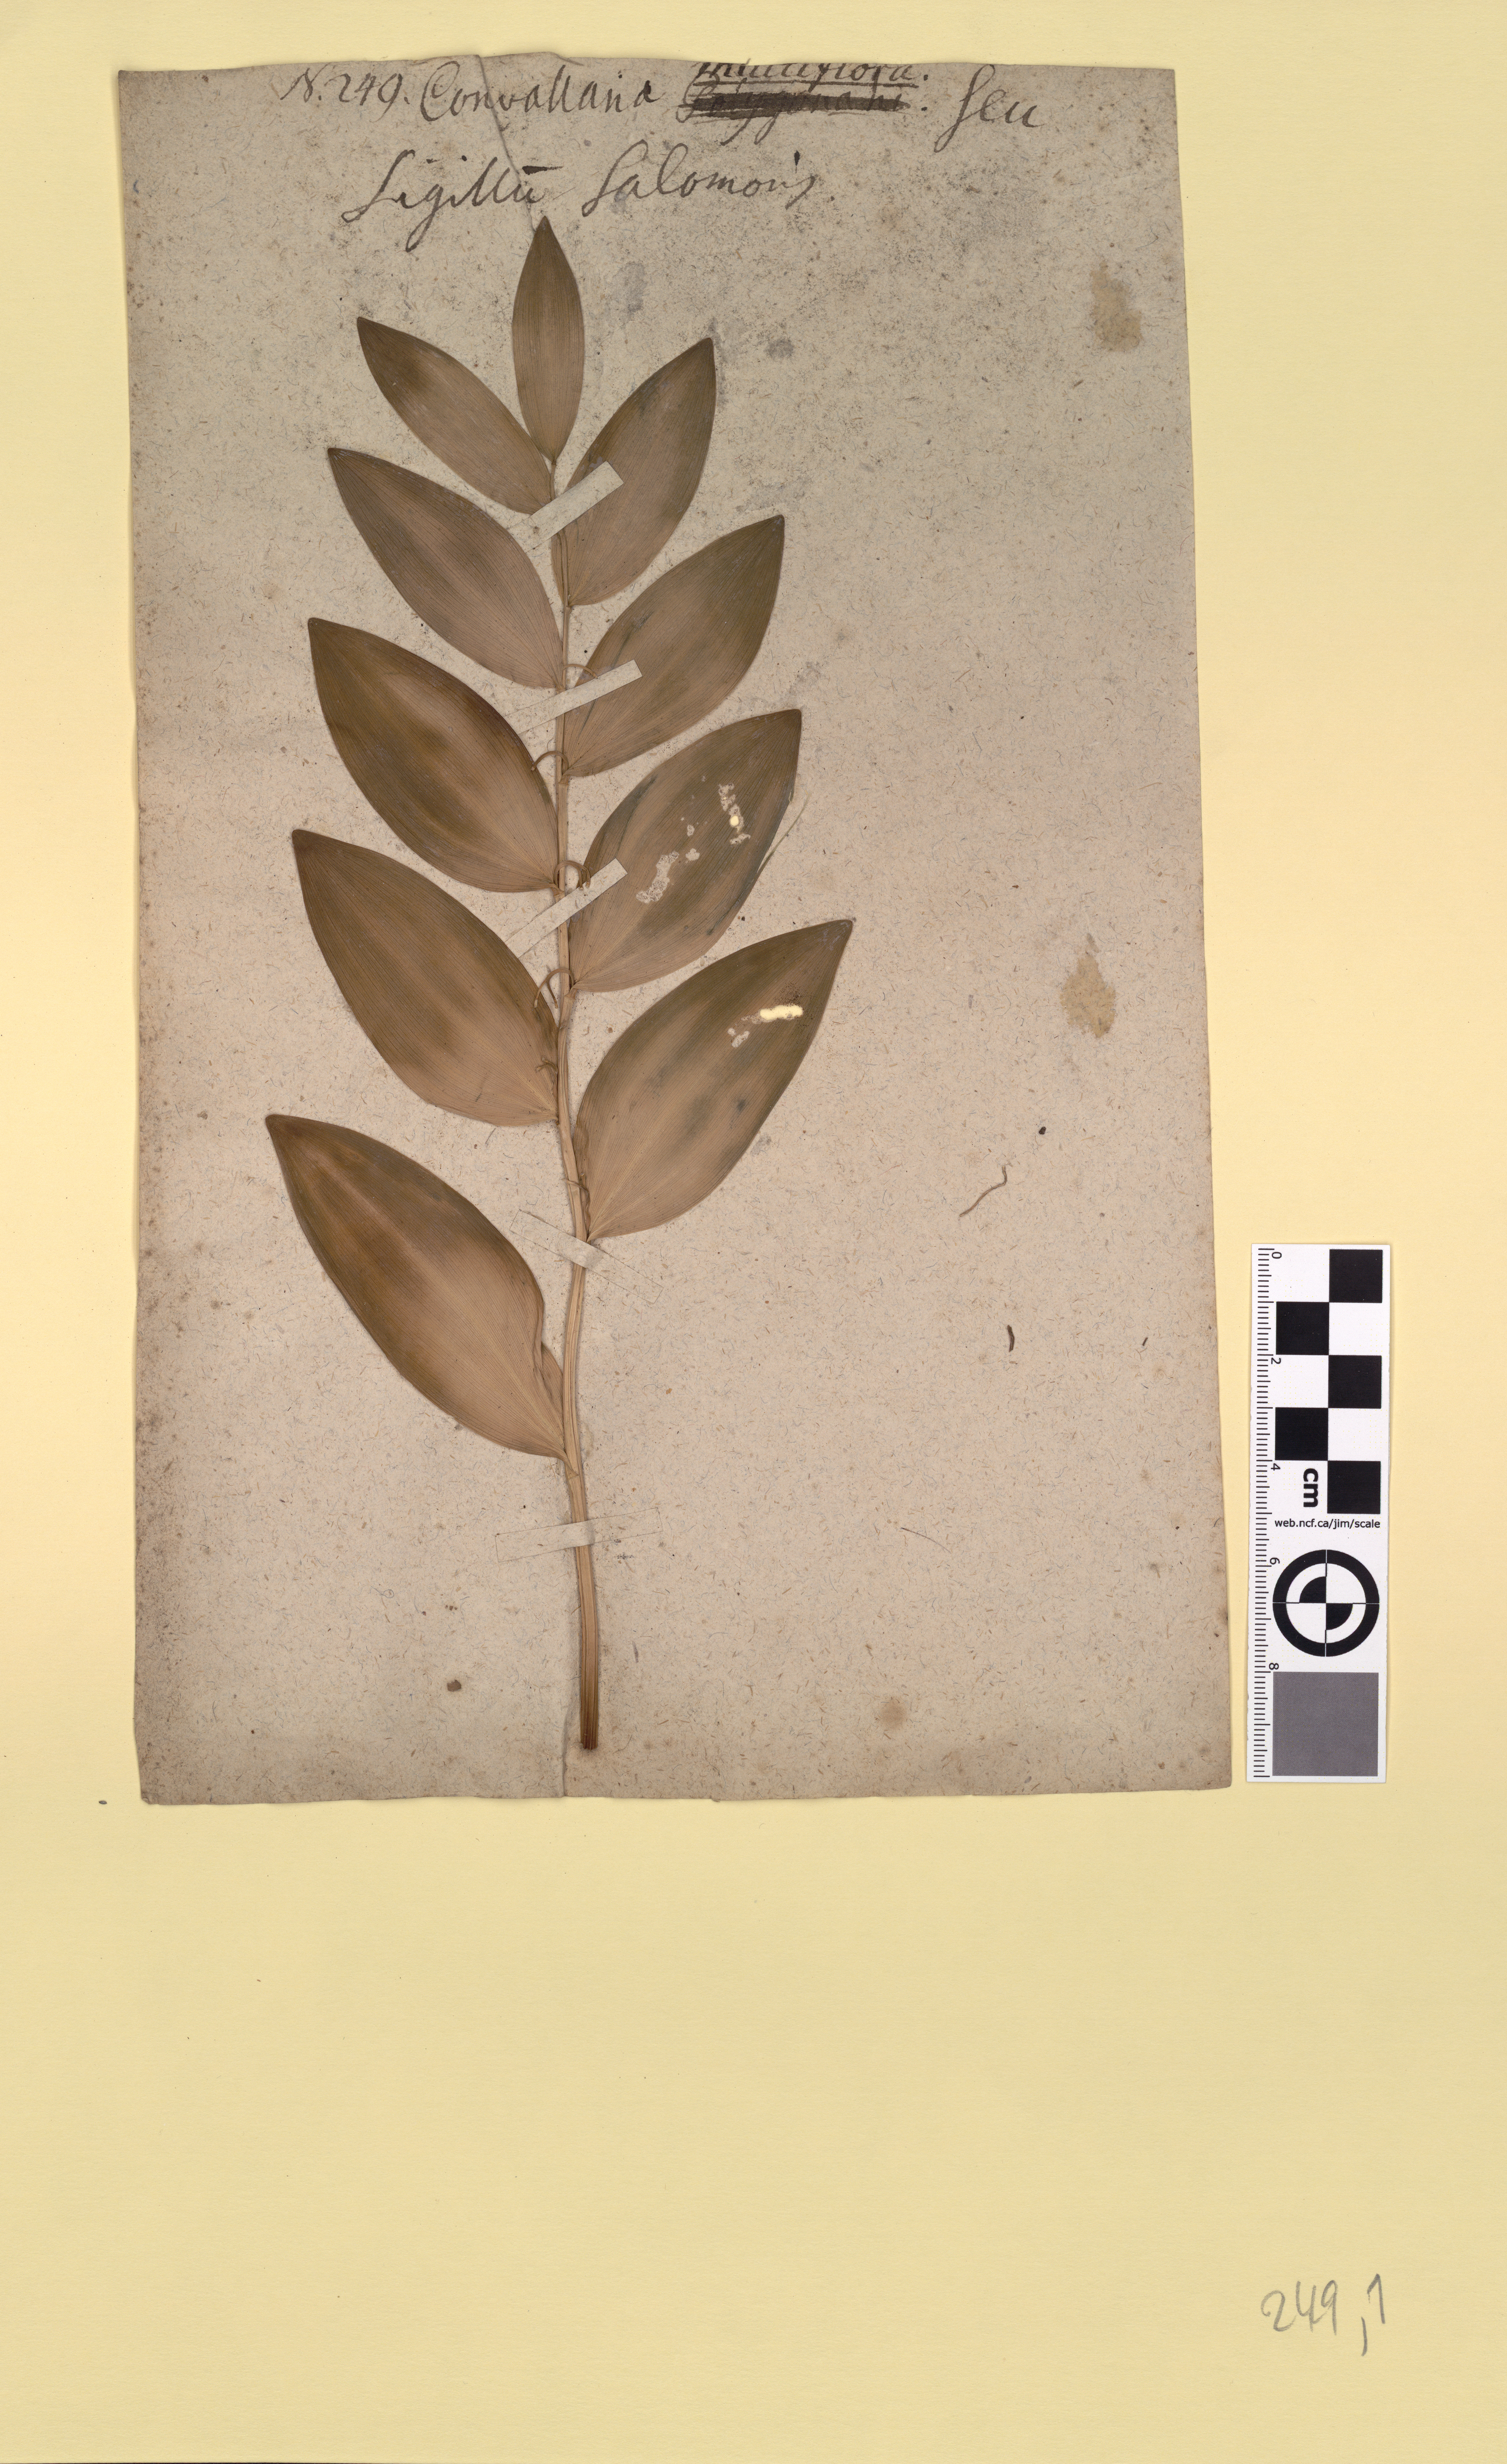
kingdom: Plantae
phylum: Tracheophyta
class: Liliopsida
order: Asparagales
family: Asparagaceae
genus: Polygonatum
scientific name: Polygonatum hybridum
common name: Garden solomon's-seal
